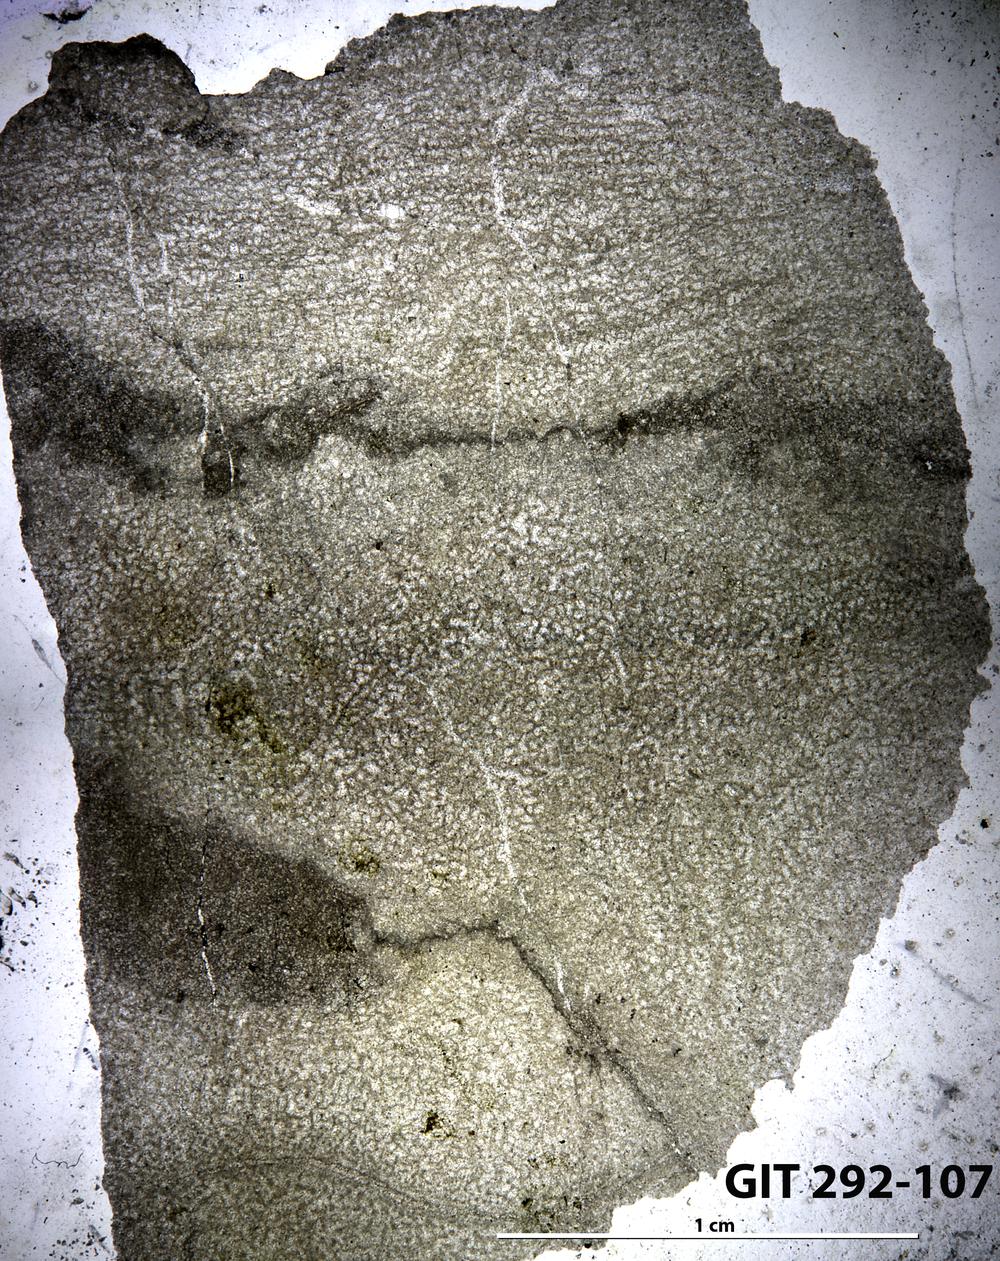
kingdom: Animalia
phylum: Porifera
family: Pseudolabechiidae
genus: Vikingia
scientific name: Vikingia
